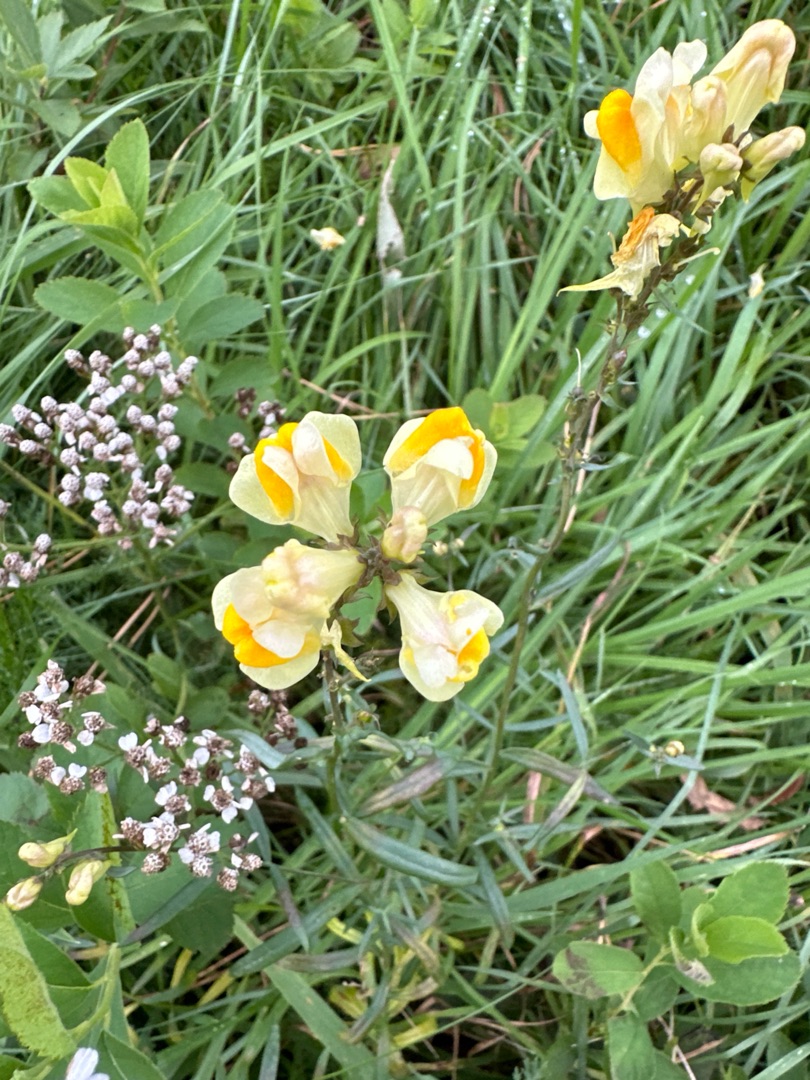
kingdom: Plantae
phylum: Tracheophyta
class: Magnoliopsida
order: Lamiales
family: Plantaginaceae
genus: Linaria
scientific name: Linaria vulgaris
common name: Almindelig torskemund
